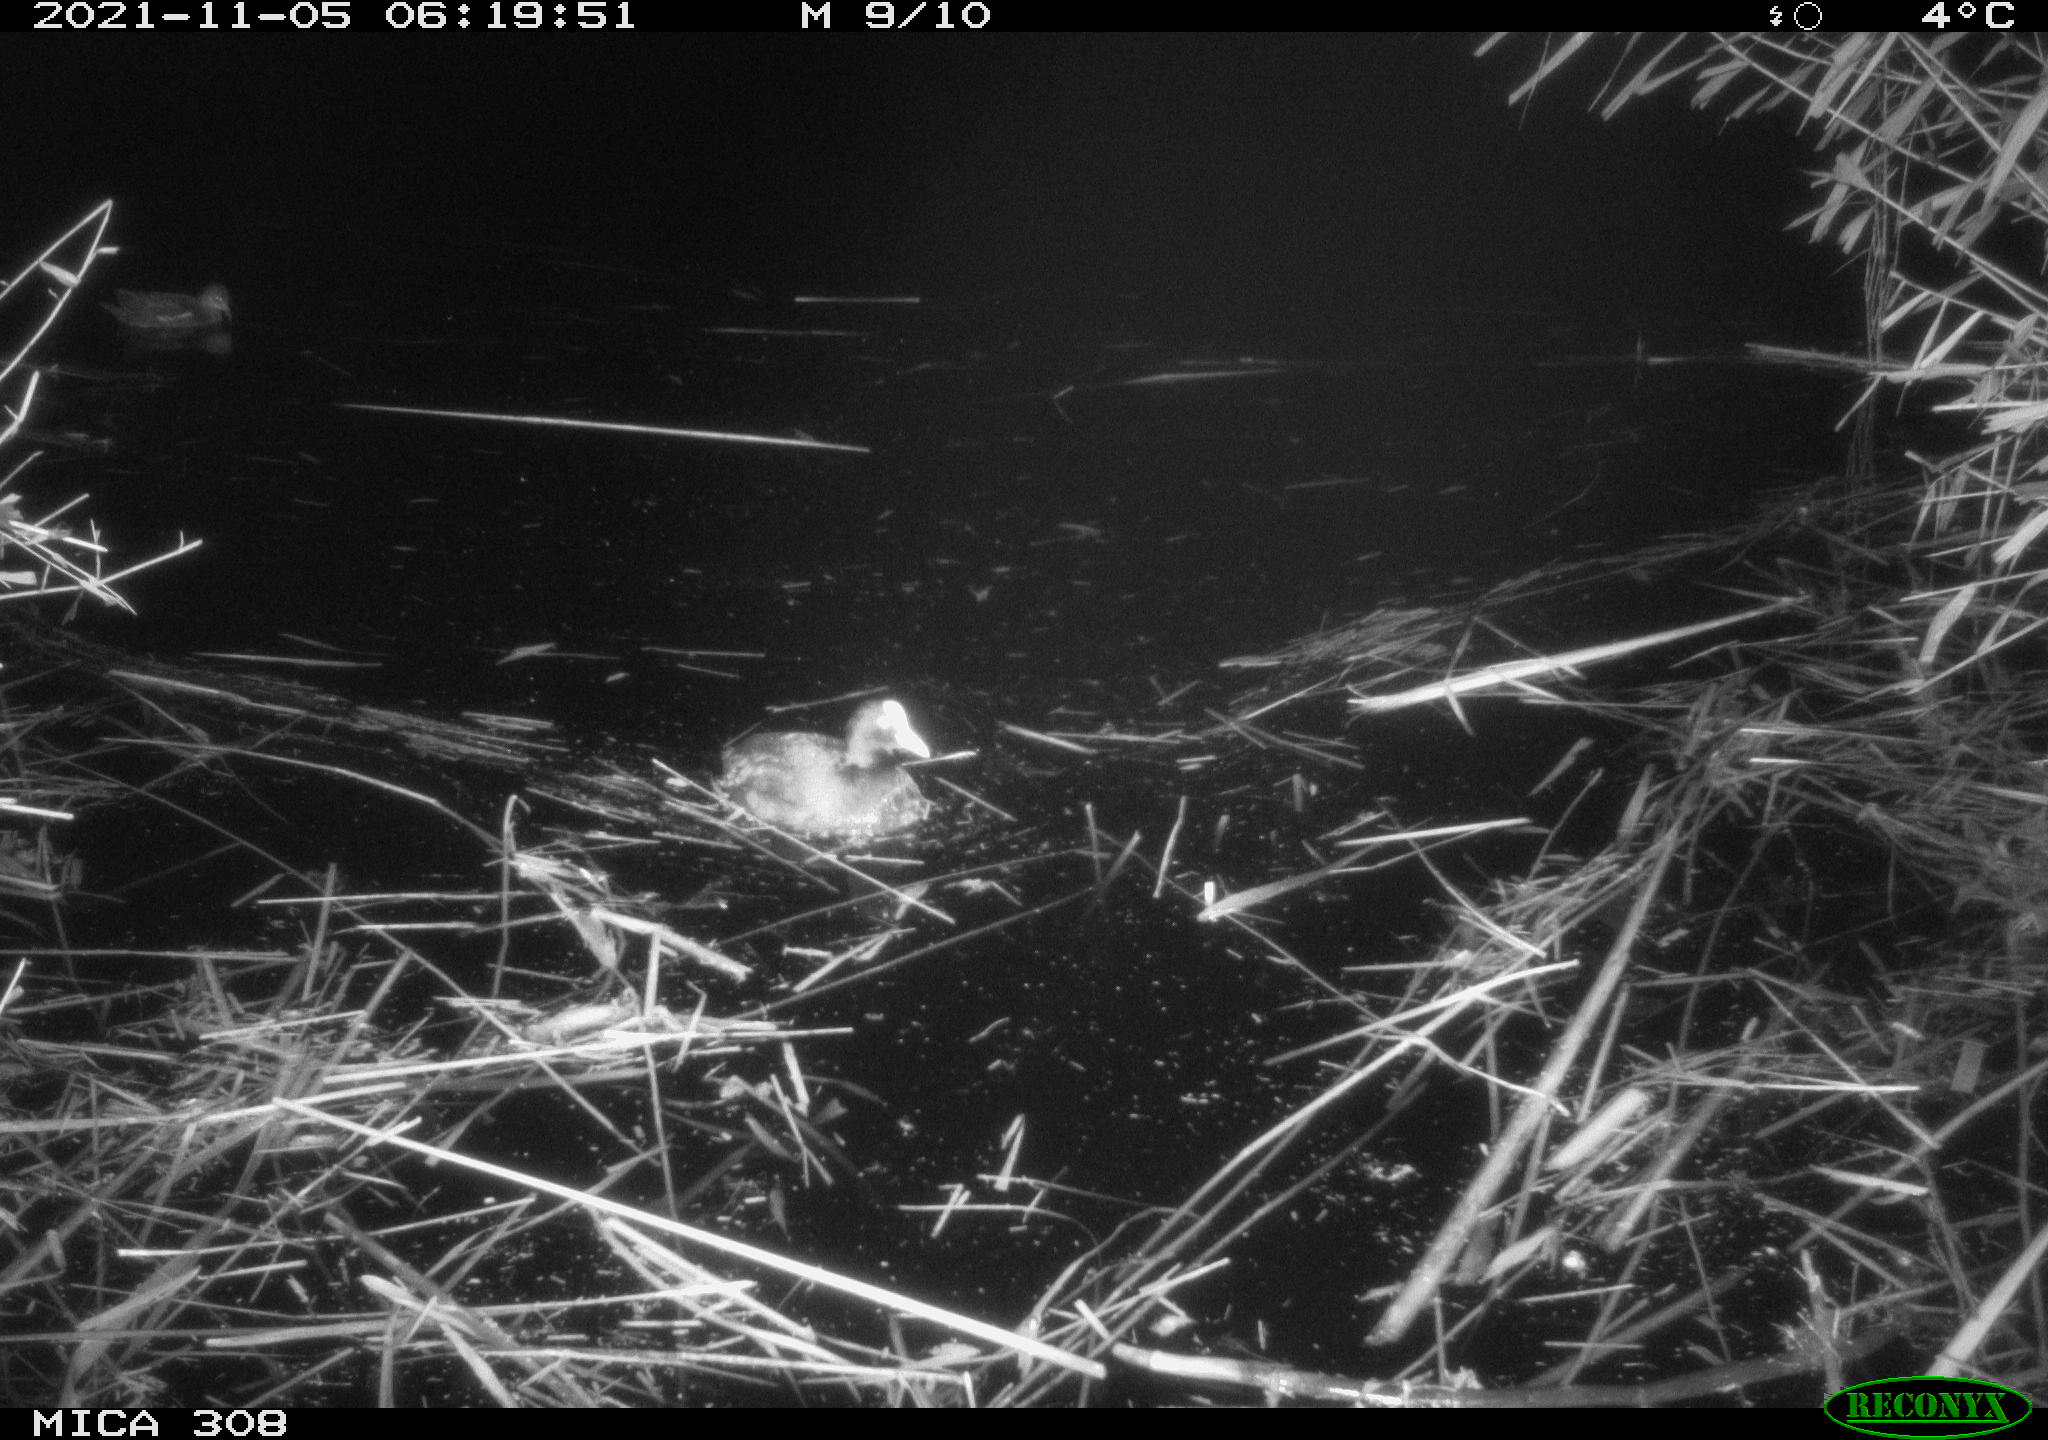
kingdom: Animalia
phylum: Chordata
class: Aves
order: Gruiformes
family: Rallidae
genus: Gallinula
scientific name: Gallinula chloropus
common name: Common moorhen
